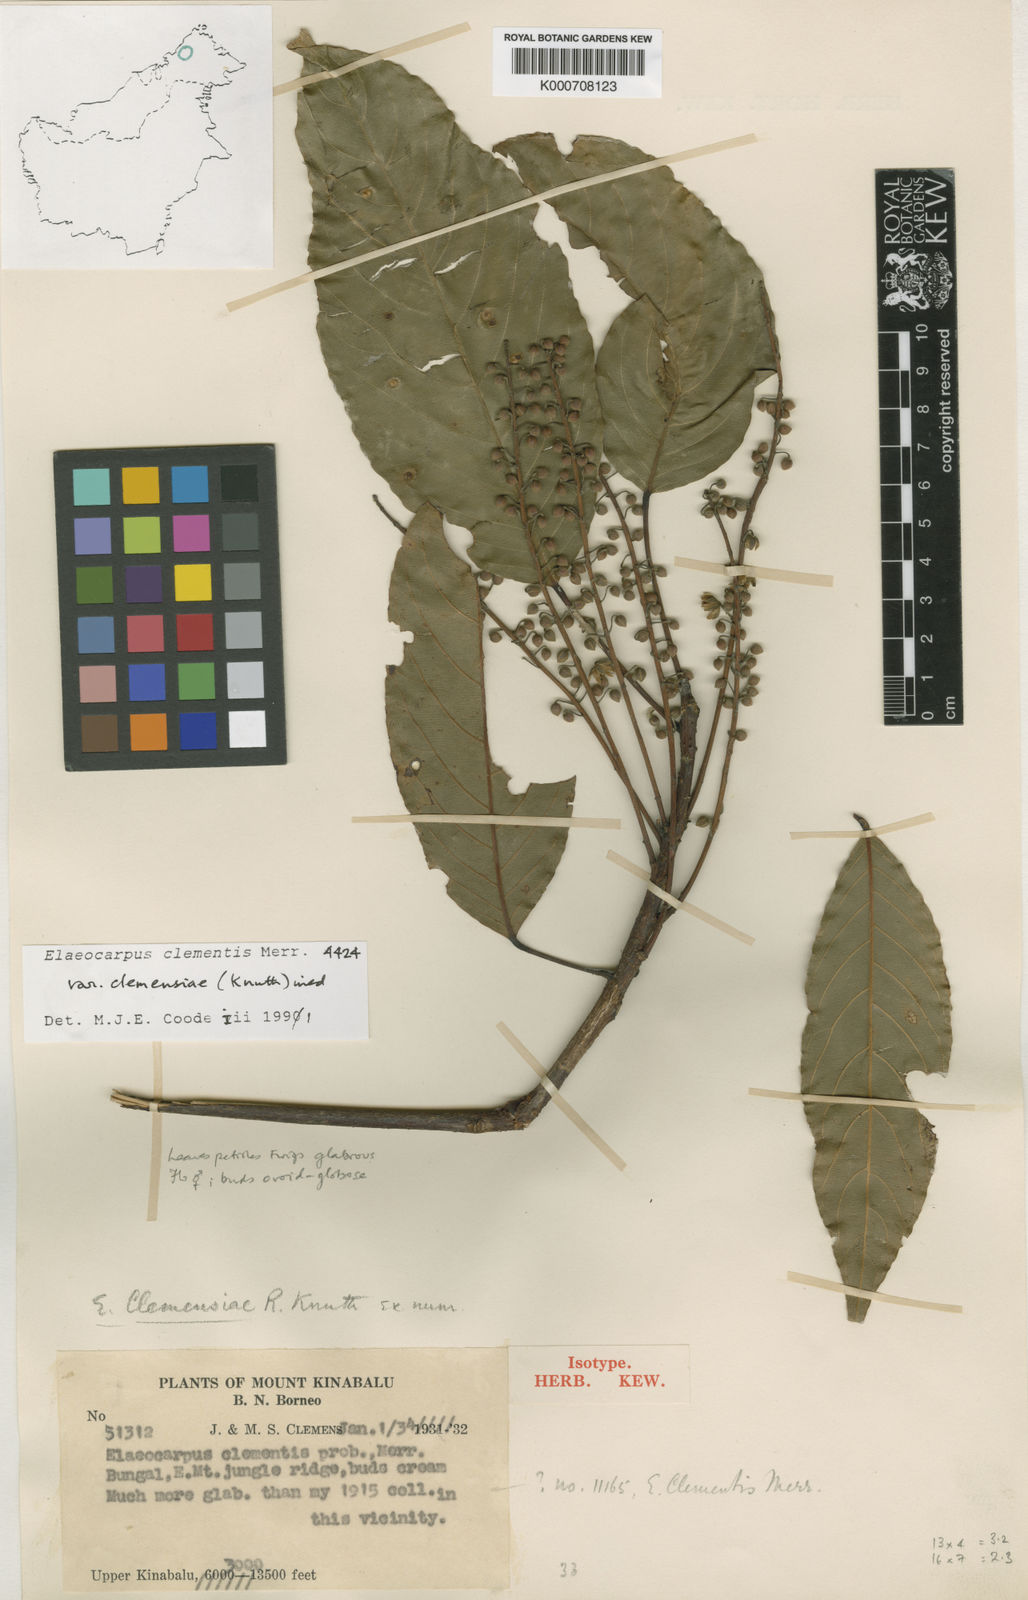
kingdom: Plantae
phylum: Tracheophyta
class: Magnoliopsida
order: Oxalidales
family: Elaeocarpaceae
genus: Elaeocarpus
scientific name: Elaeocarpus clementis
